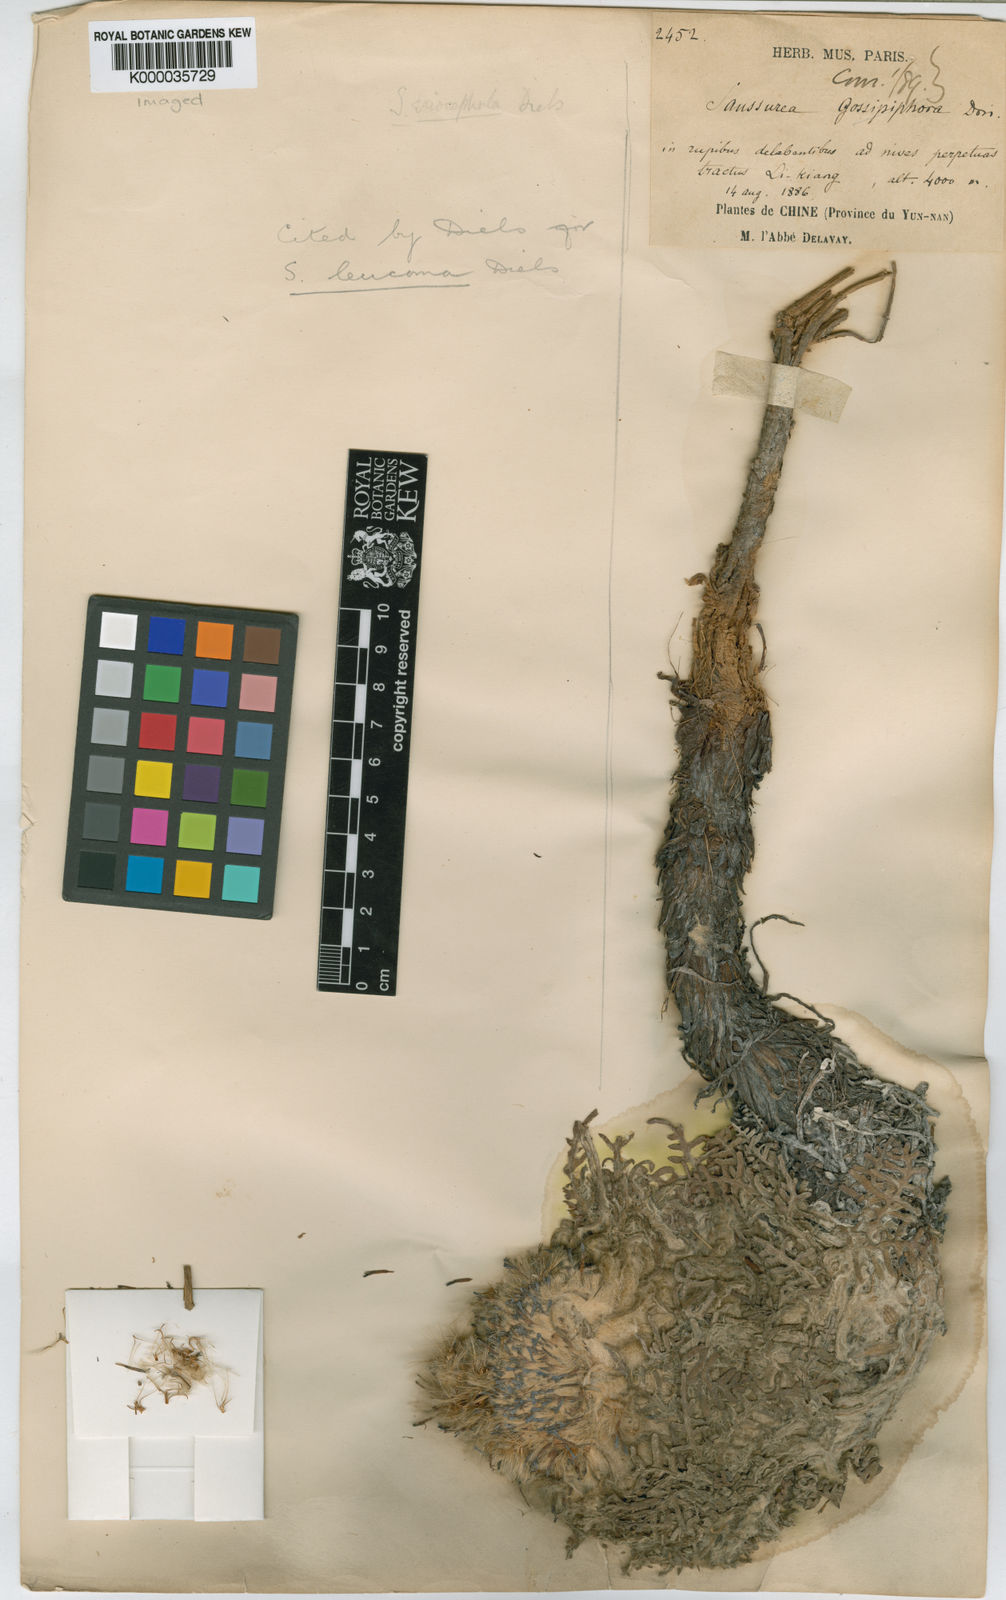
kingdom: Plantae
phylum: Tracheophyta
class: Magnoliopsida
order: Asterales
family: Asteraceae
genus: Saussurea
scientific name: Saussurea leucoma
